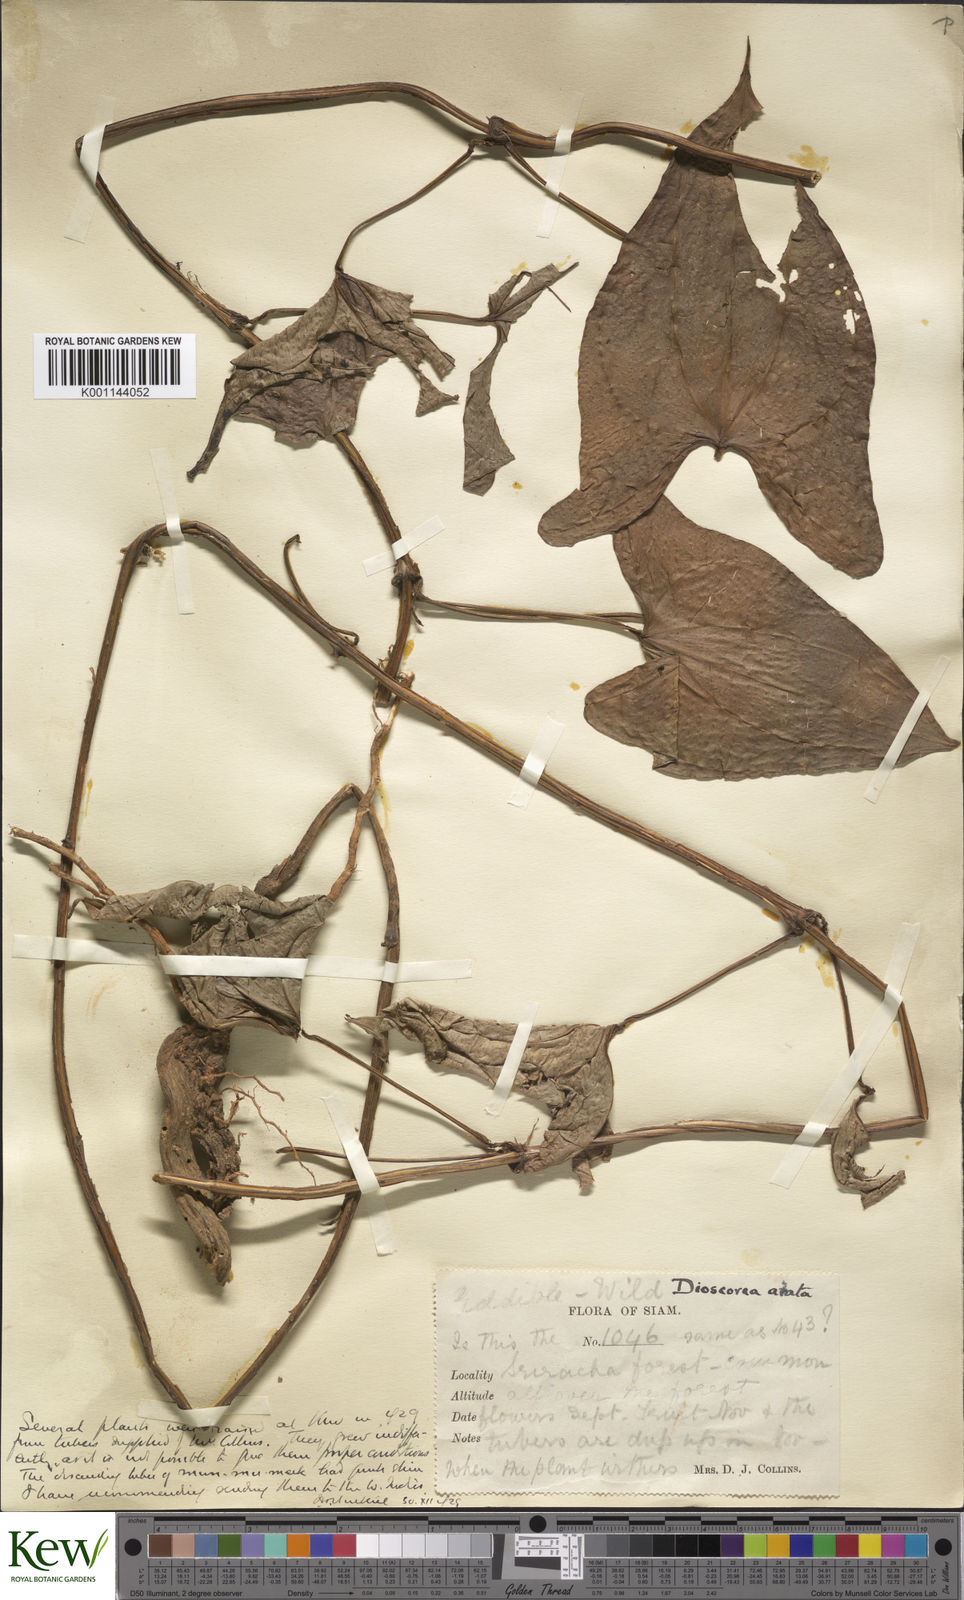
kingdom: Plantae
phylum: Tracheophyta
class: Liliopsida
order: Dioscoreales
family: Dioscoreaceae
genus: Dioscorea
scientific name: Dioscorea alata
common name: Water yam
